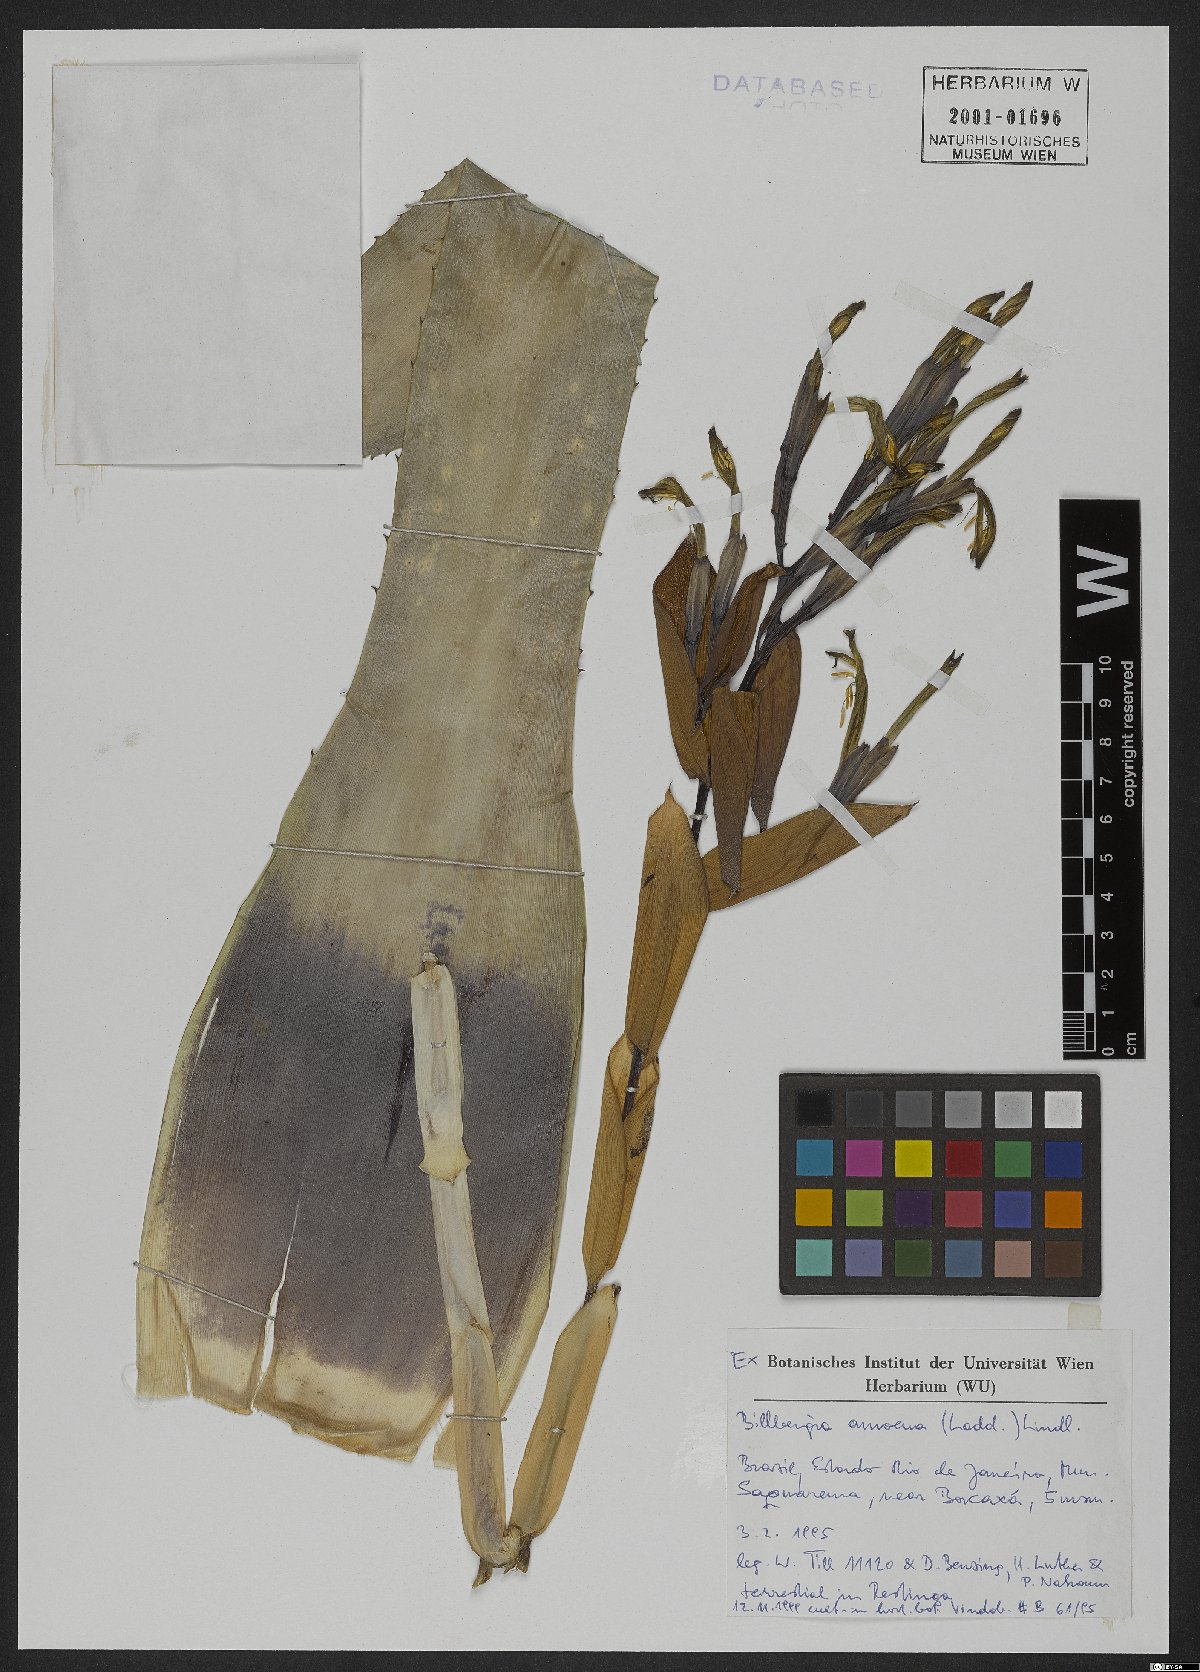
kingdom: Plantae
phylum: Tracheophyta
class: Liliopsida
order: Poales
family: Bromeliaceae
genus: Billbergia
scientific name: Billbergia amoena
